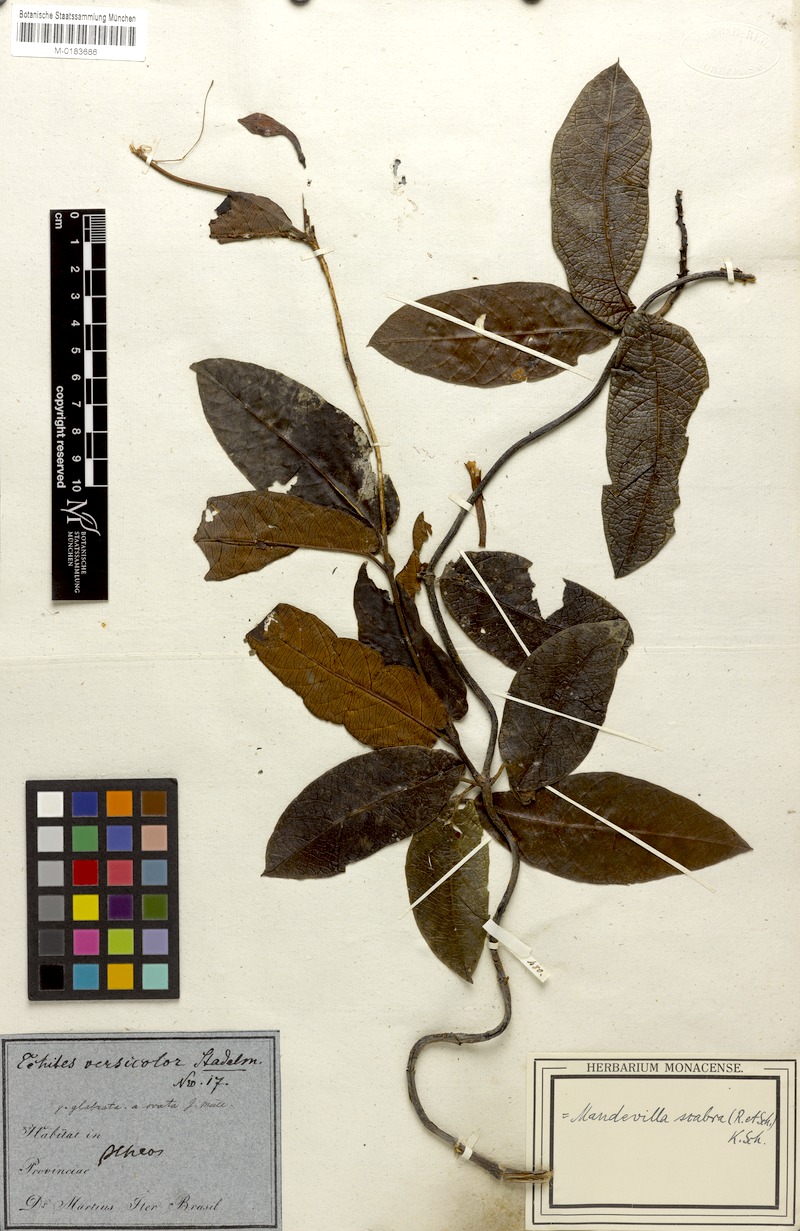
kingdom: Plantae
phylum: Tracheophyta
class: Magnoliopsida
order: Gentianales
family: Apocynaceae
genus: Mandevilla
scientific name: Mandevilla scabra
